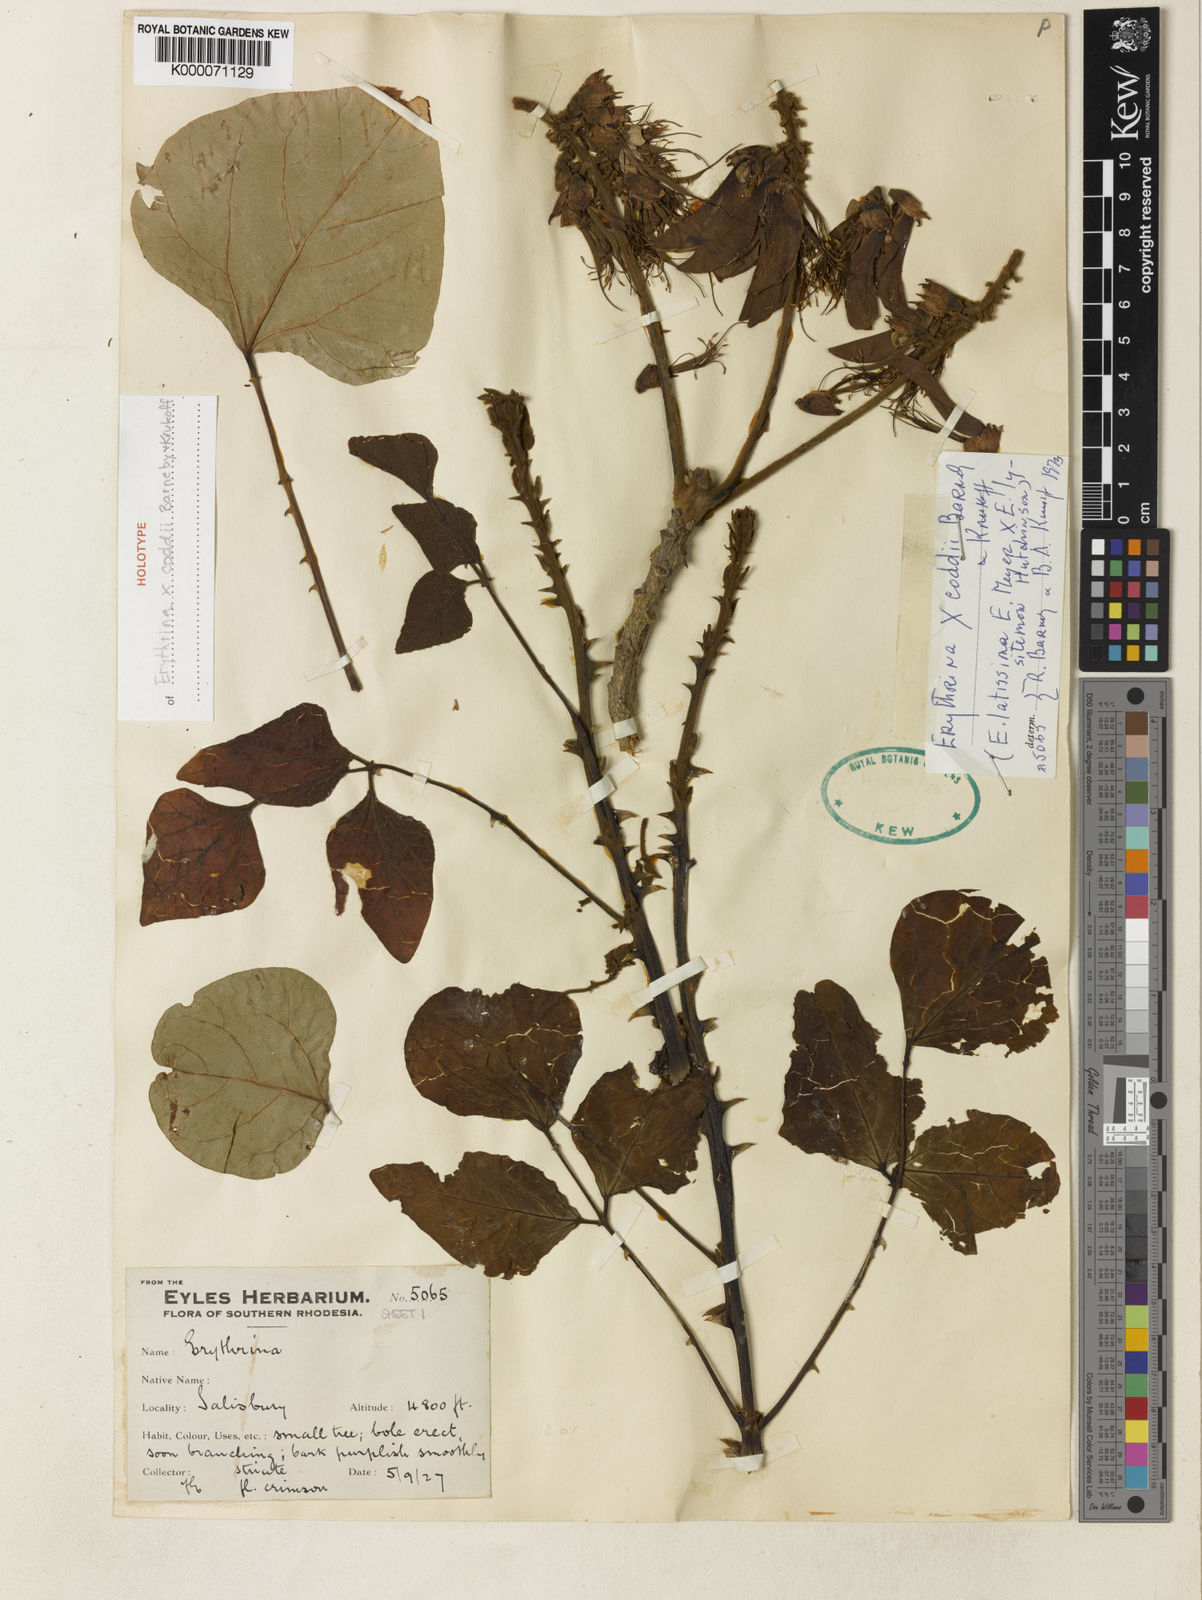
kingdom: Plantae
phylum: Tracheophyta
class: Magnoliopsida
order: Fabales
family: Fabaceae
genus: Erythrina
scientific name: Erythrina coddii
